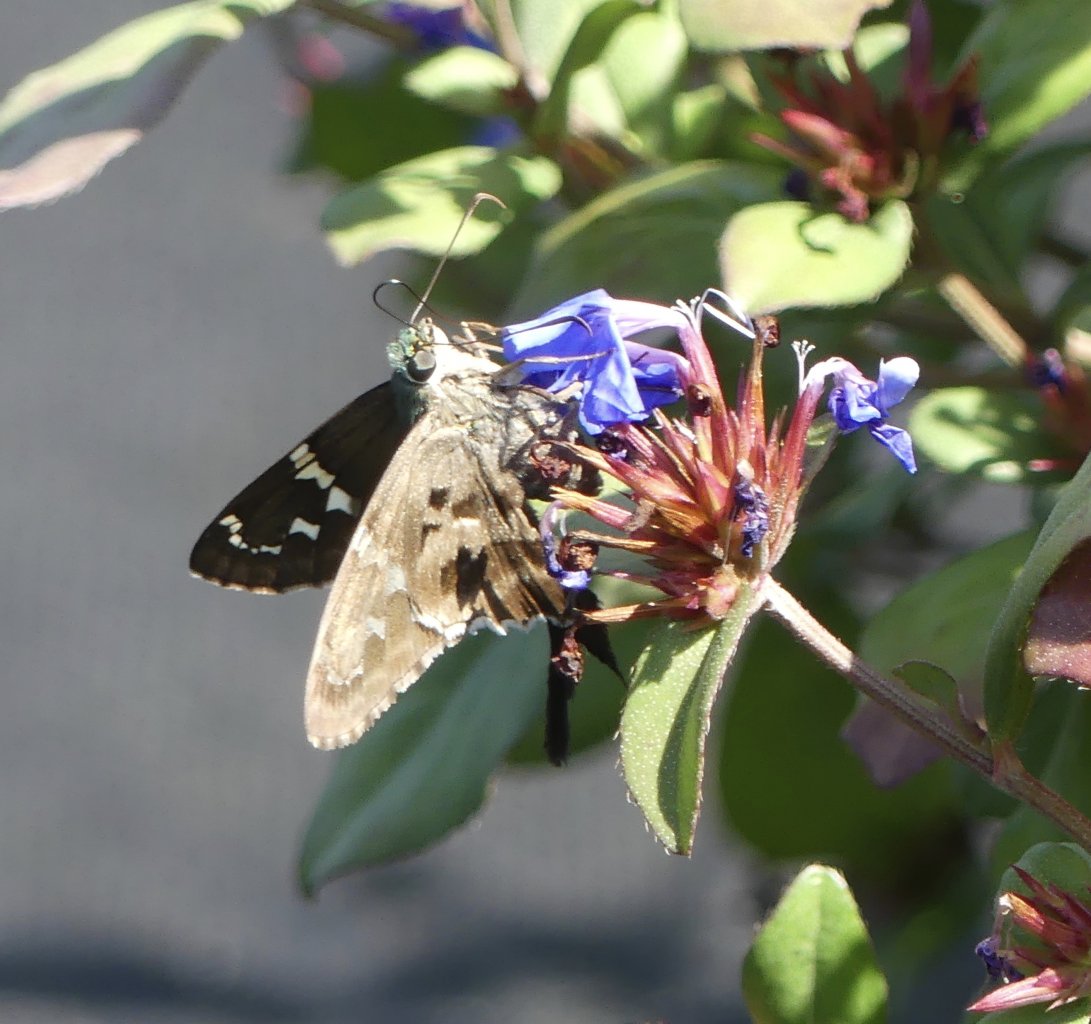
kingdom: Animalia
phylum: Arthropoda
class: Insecta
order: Lepidoptera
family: Hesperiidae
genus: Urbanus
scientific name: Urbanus proteus
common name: Long-tailed Skipper
